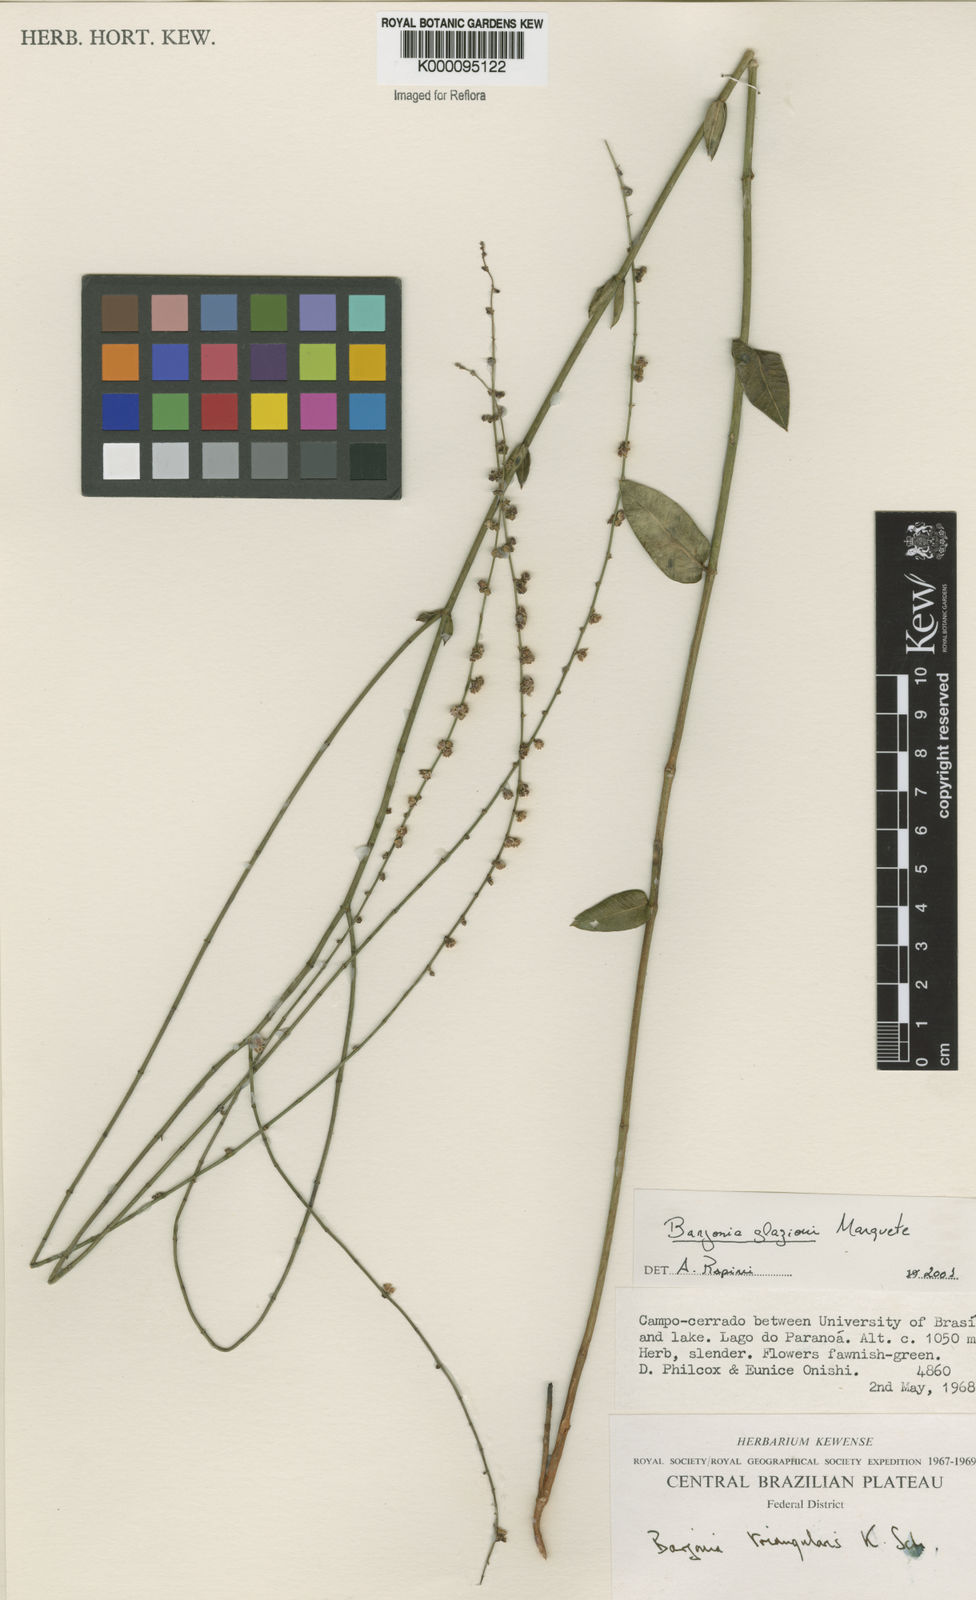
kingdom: Plantae
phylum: Tracheophyta
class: Magnoliopsida
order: Gentianales
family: Apocynaceae
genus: Barjonia
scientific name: Barjonia glazioui
